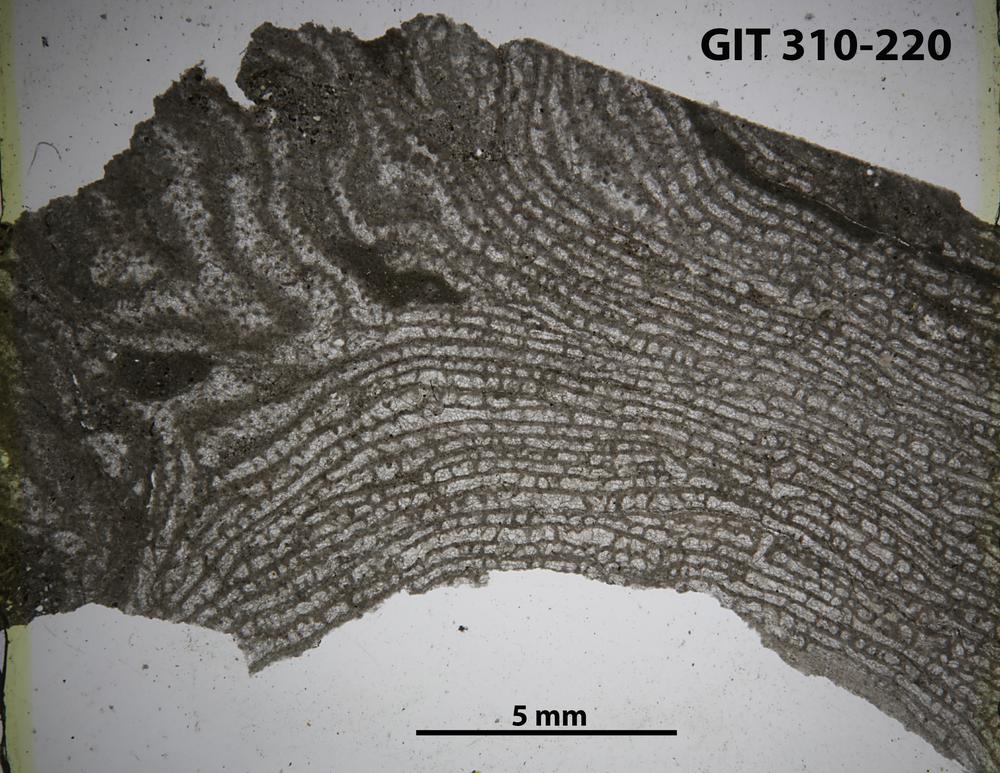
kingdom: Animalia
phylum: Porifera
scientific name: Porifera
